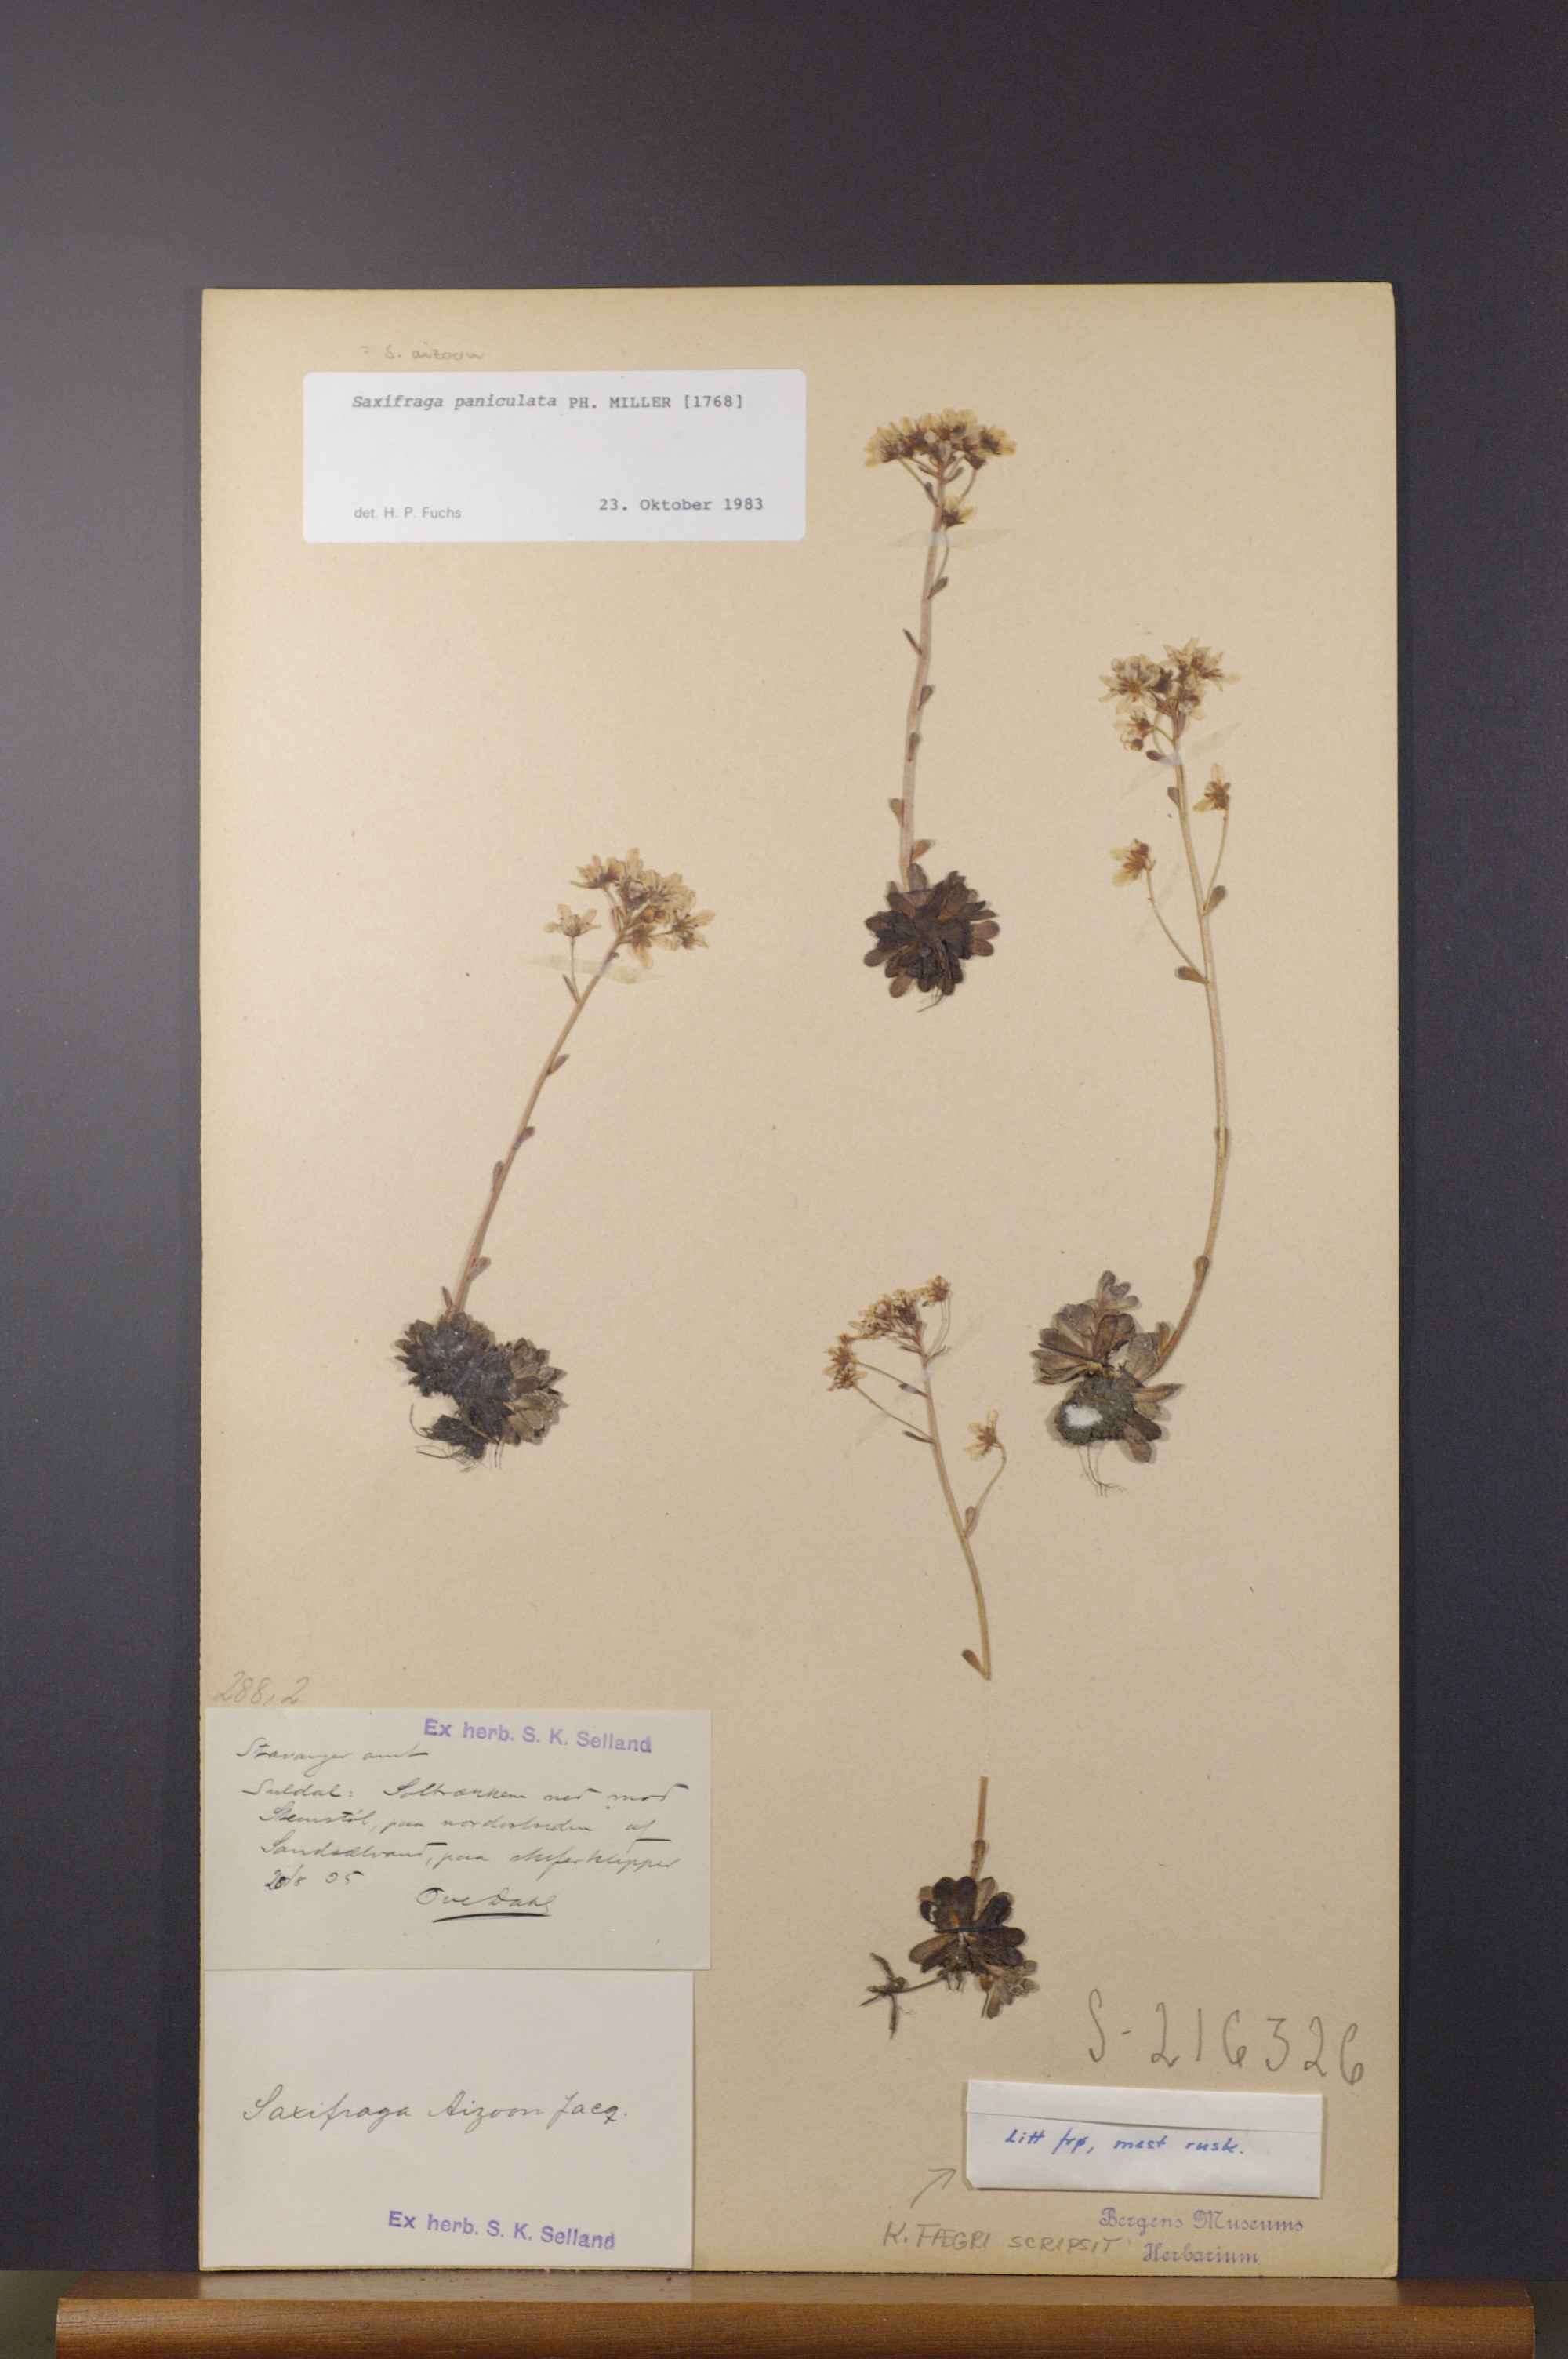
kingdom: Plantae
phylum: Tracheophyta
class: Magnoliopsida
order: Saxifragales
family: Saxifragaceae
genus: Saxifraga
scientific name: Saxifraga paniculata
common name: Livelong saxifrage
